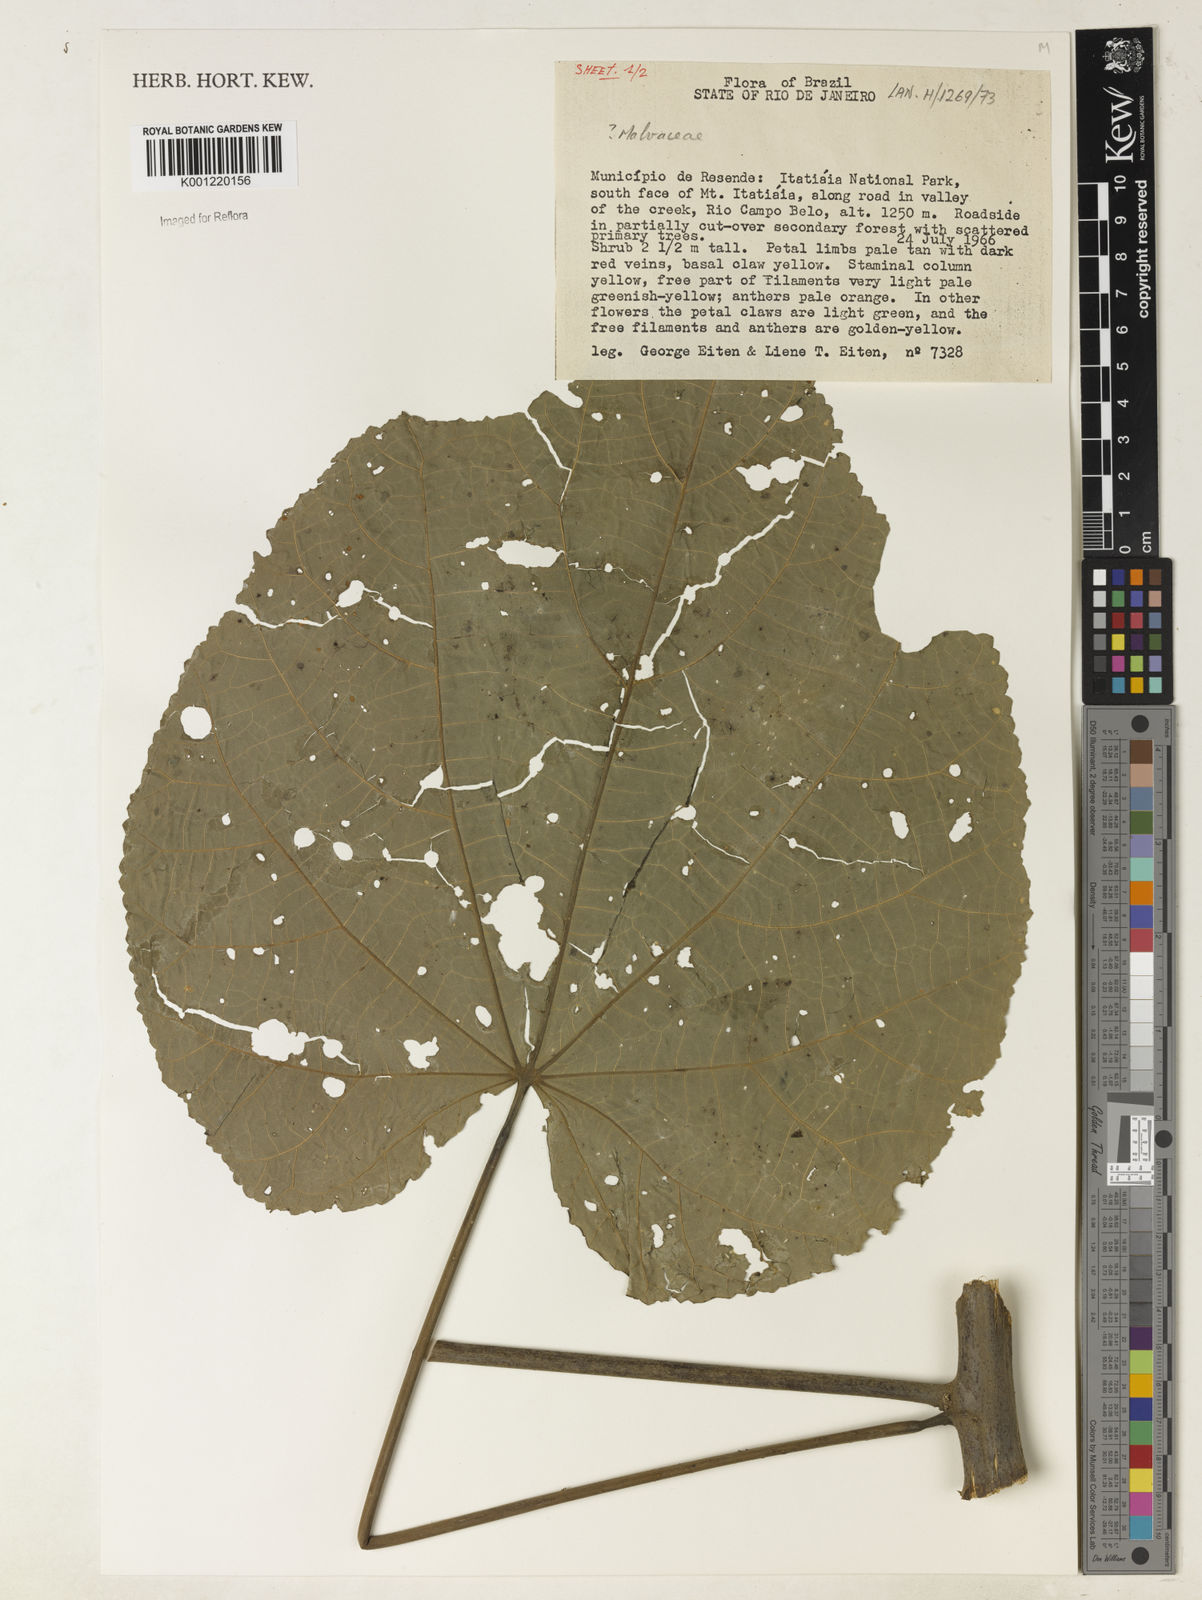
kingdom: Plantae
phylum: Tracheophyta
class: Magnoliopsida
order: Malvales
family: Malvaceae
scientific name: Malvaceae
